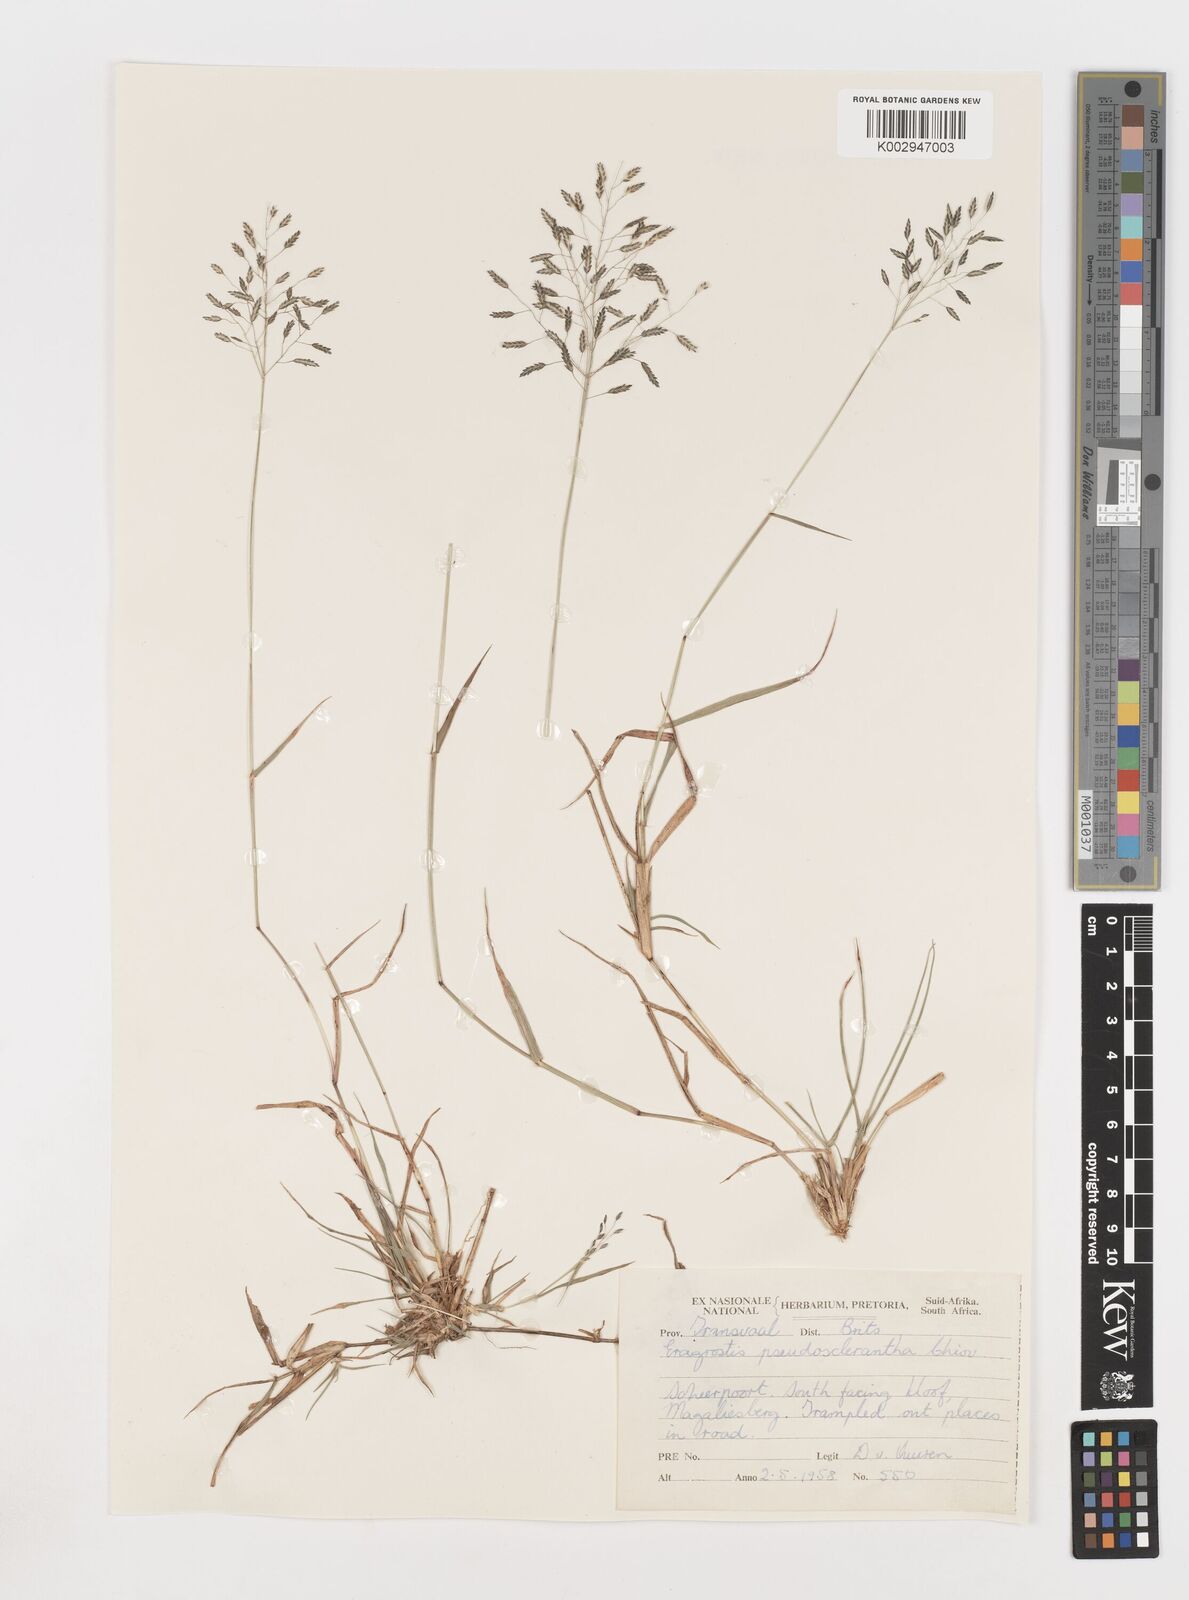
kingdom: Plantae
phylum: Tracheophyta
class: Liliopsida
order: Poales
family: Poaceae
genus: Eragrostis
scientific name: Eragrostis patentipilosa
